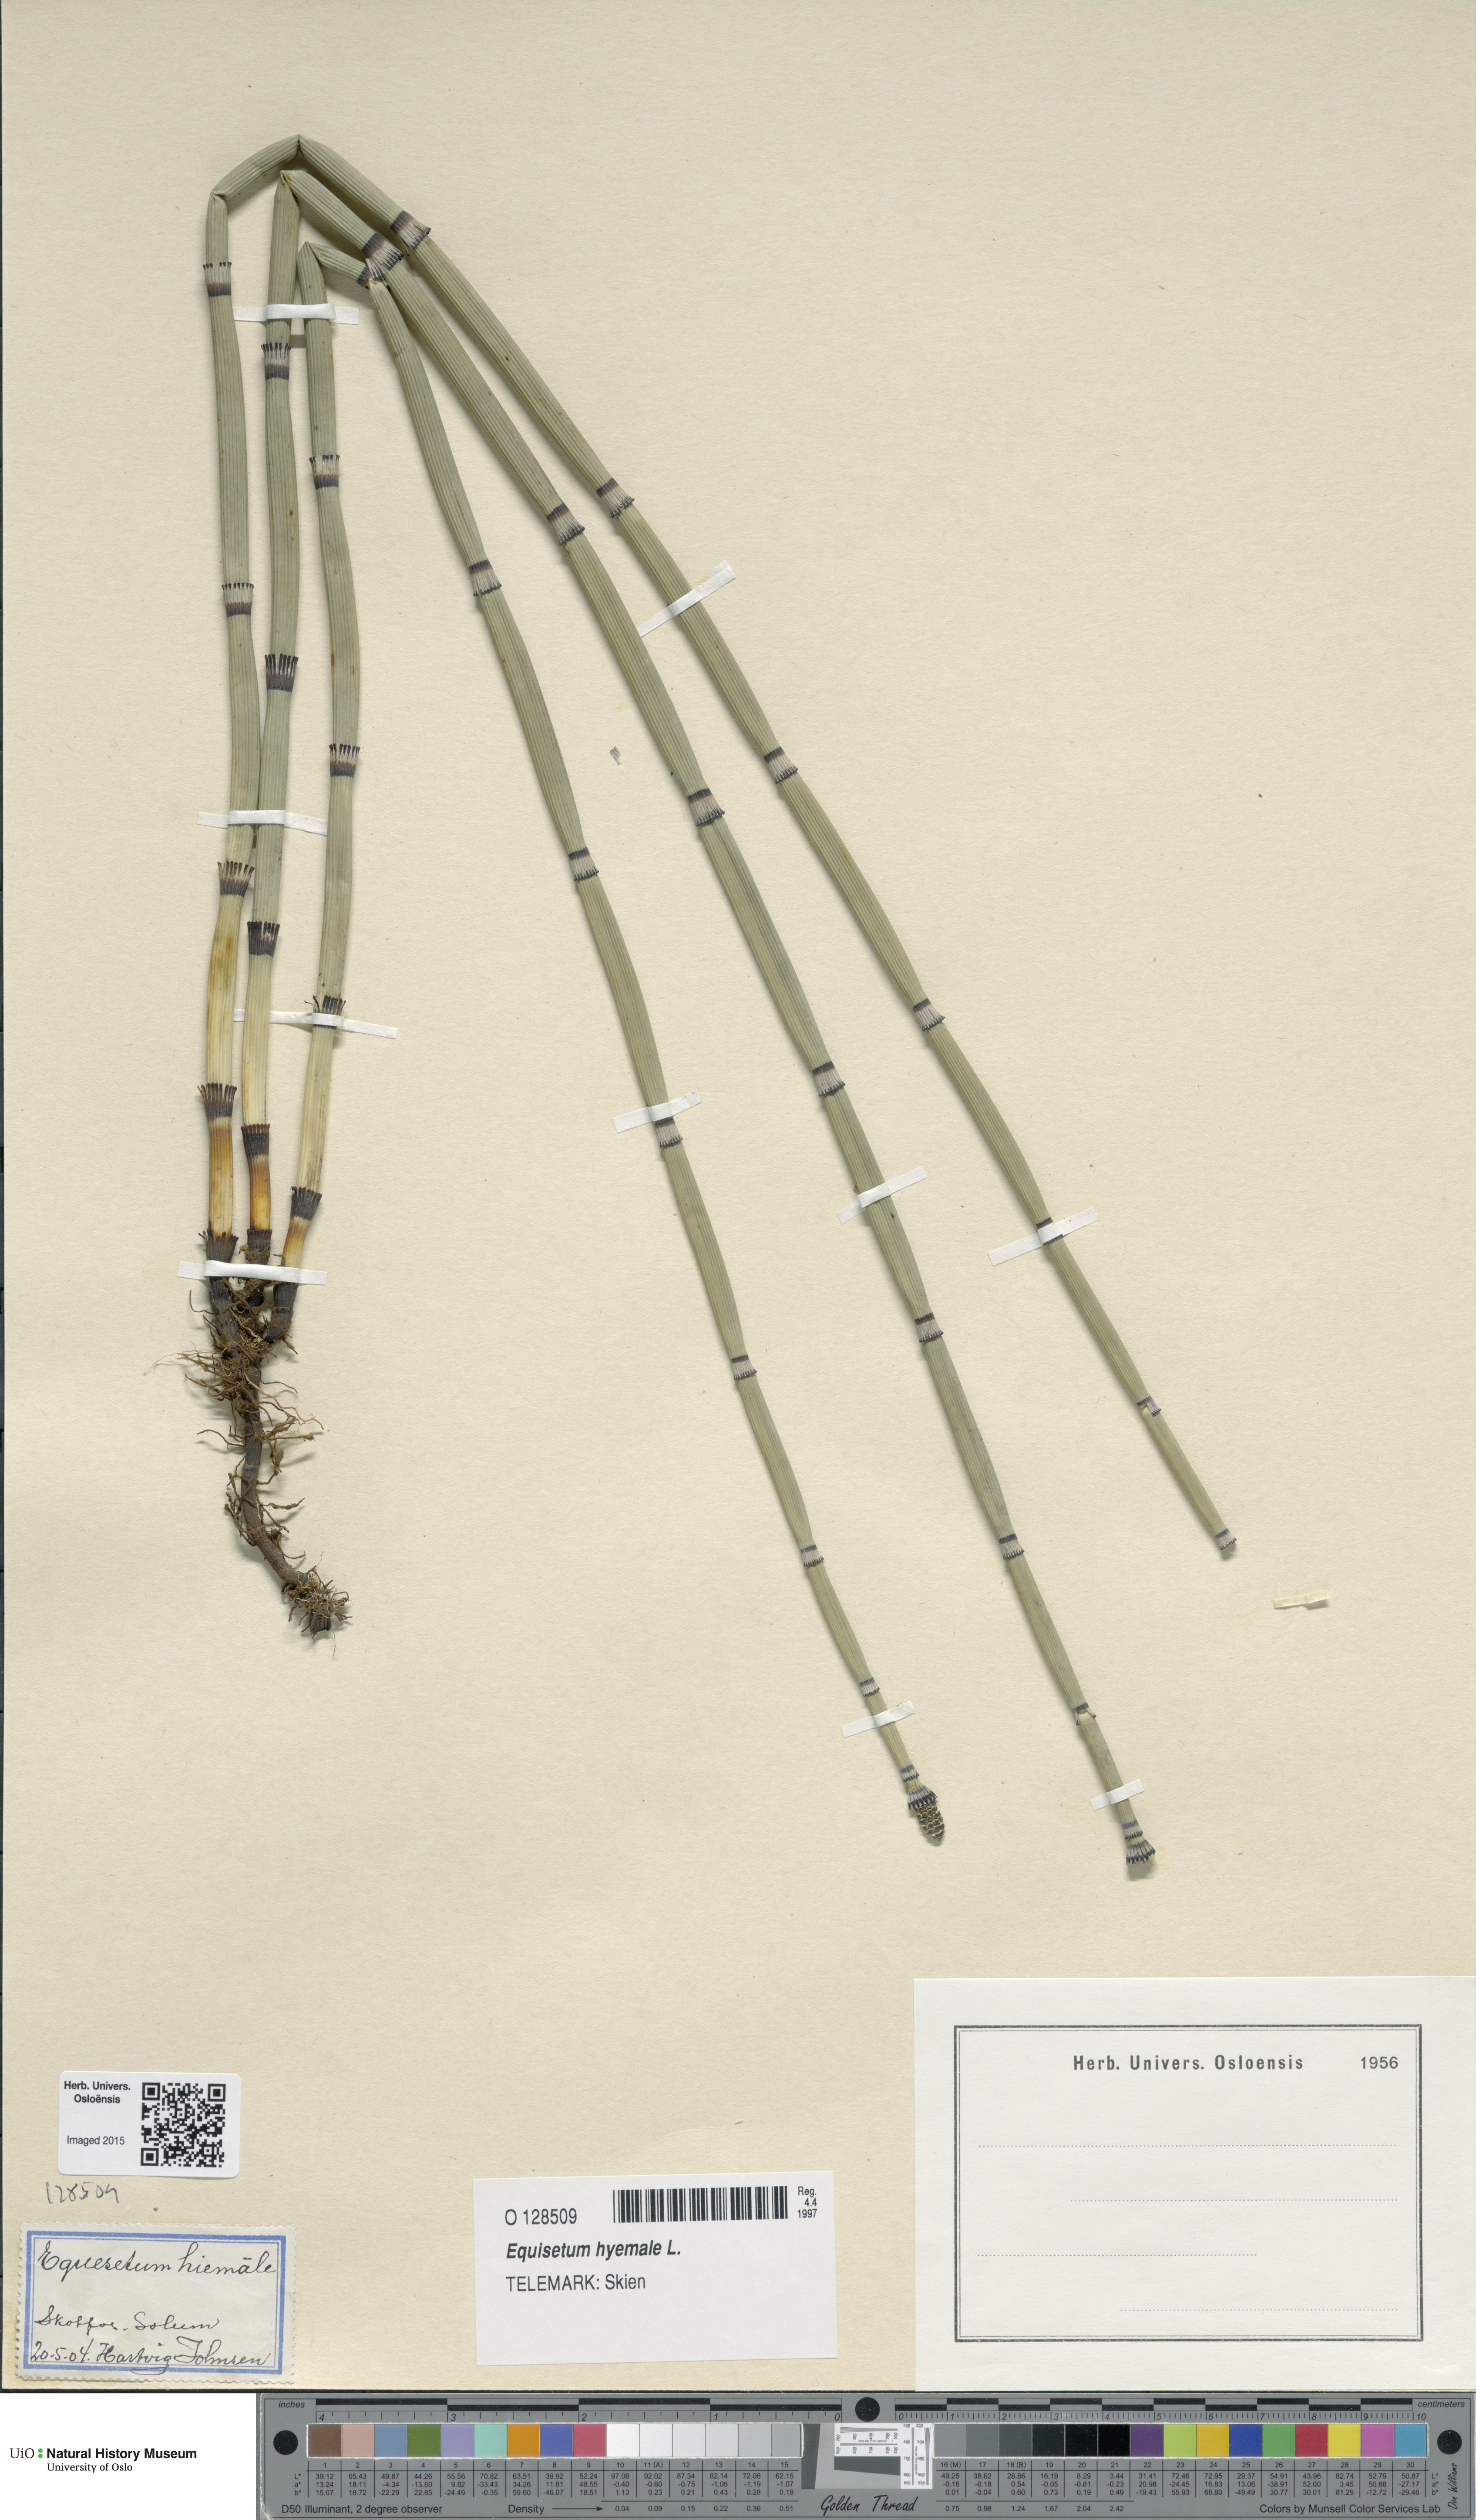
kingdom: Plantae
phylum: Tracheophyta
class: Polypodiopsida
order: Equisetales
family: Equisetaceae
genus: Equisetum
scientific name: Equisetum hyemale
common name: Rough horsetail
